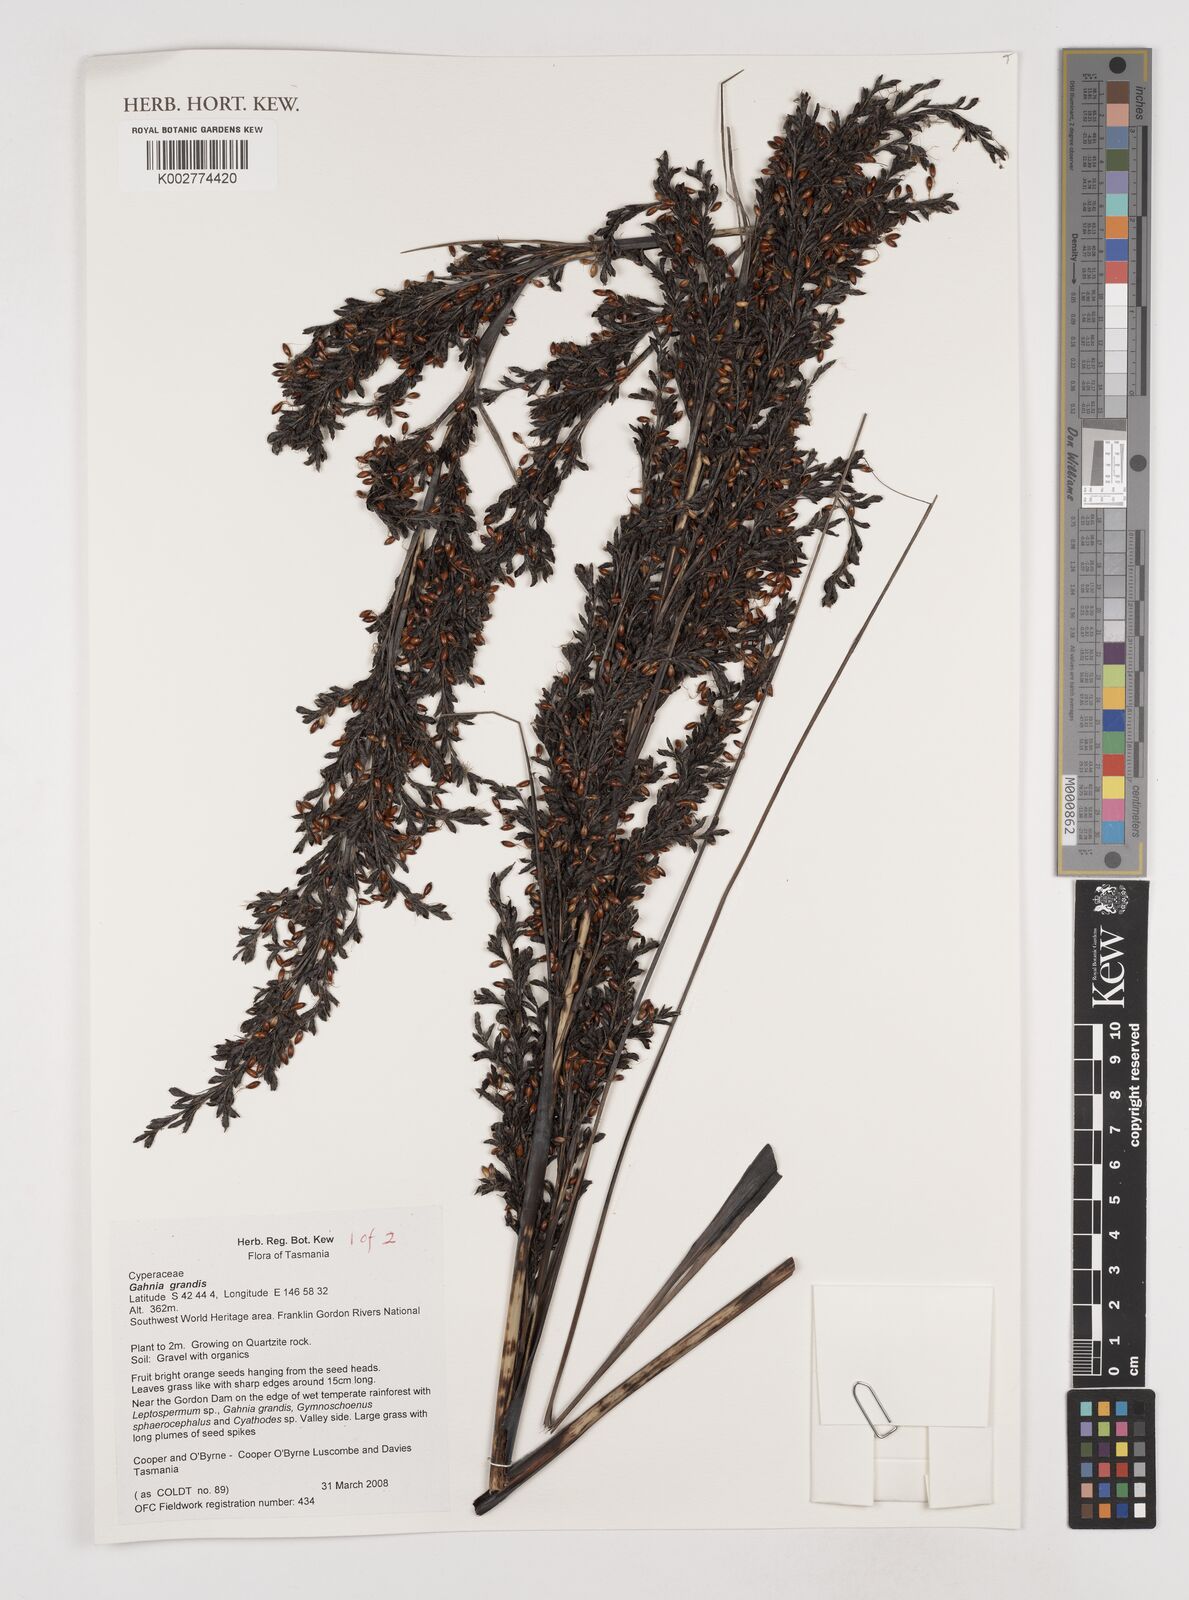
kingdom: Plantae
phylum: Tracheophyta
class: Liliopsida
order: Poales
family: Cyperaceae
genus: Gahnia
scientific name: Gahnia grandis
